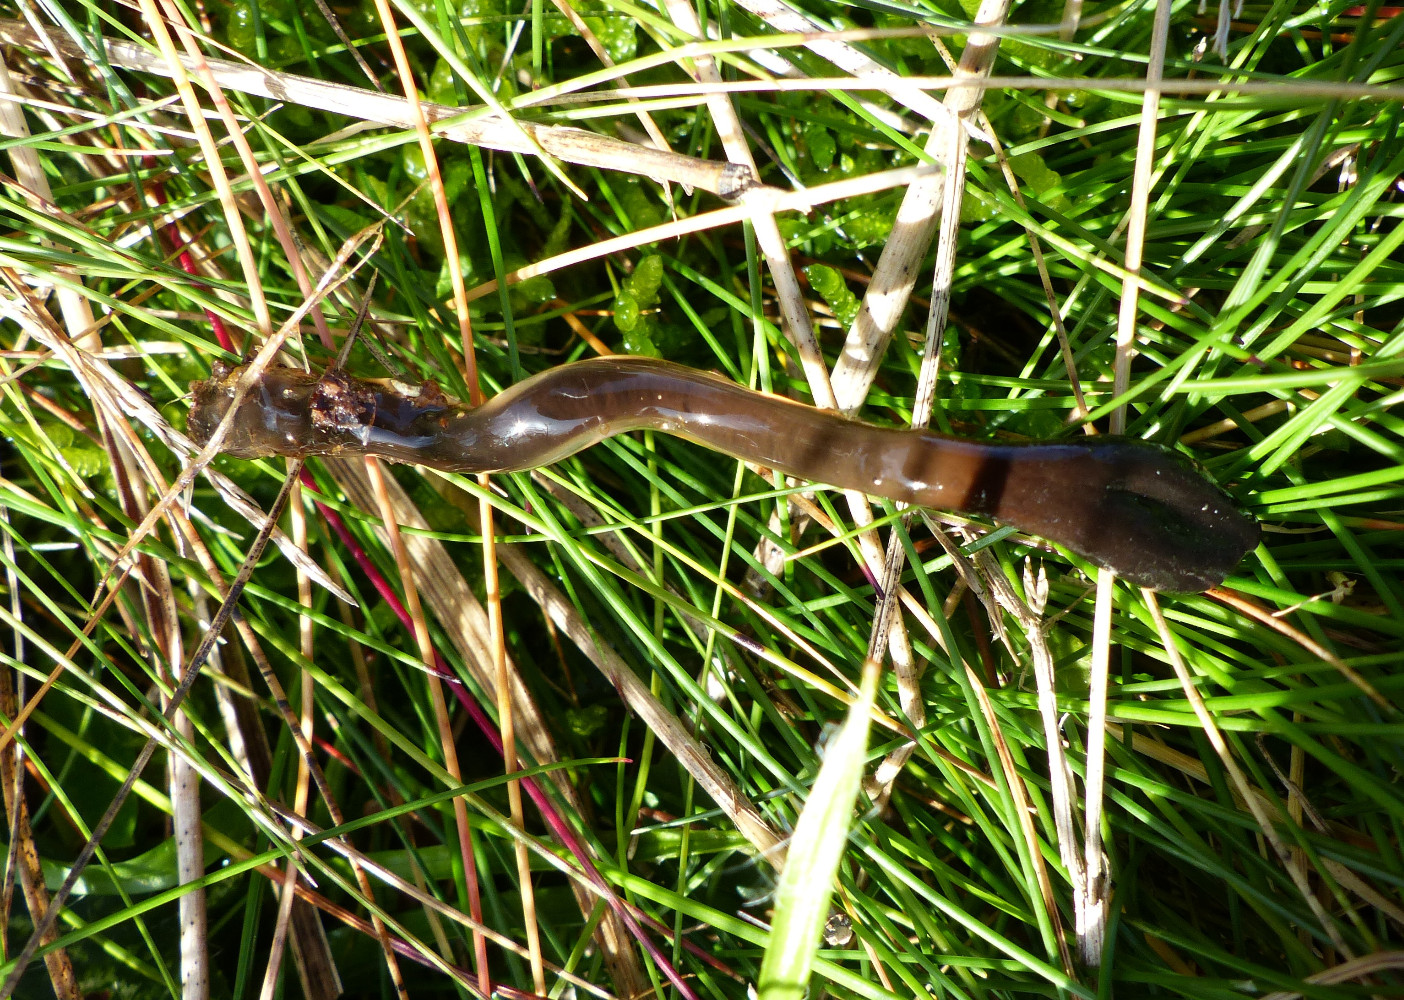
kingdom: Fungi
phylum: Ascomycota
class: Geoglossomycetes
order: Geoglossales
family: Geoglossaceae
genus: Glutinoglossum
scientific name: Glutinoglossum glutinosum
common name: slimet jordtunge
